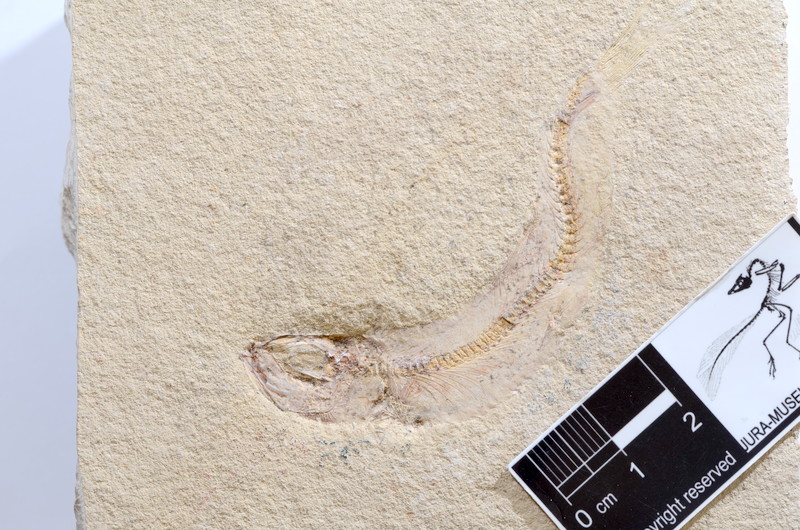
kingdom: Animalia
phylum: Chordata
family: Ascalaboidae
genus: Tharsis
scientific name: Tharsis dubius
